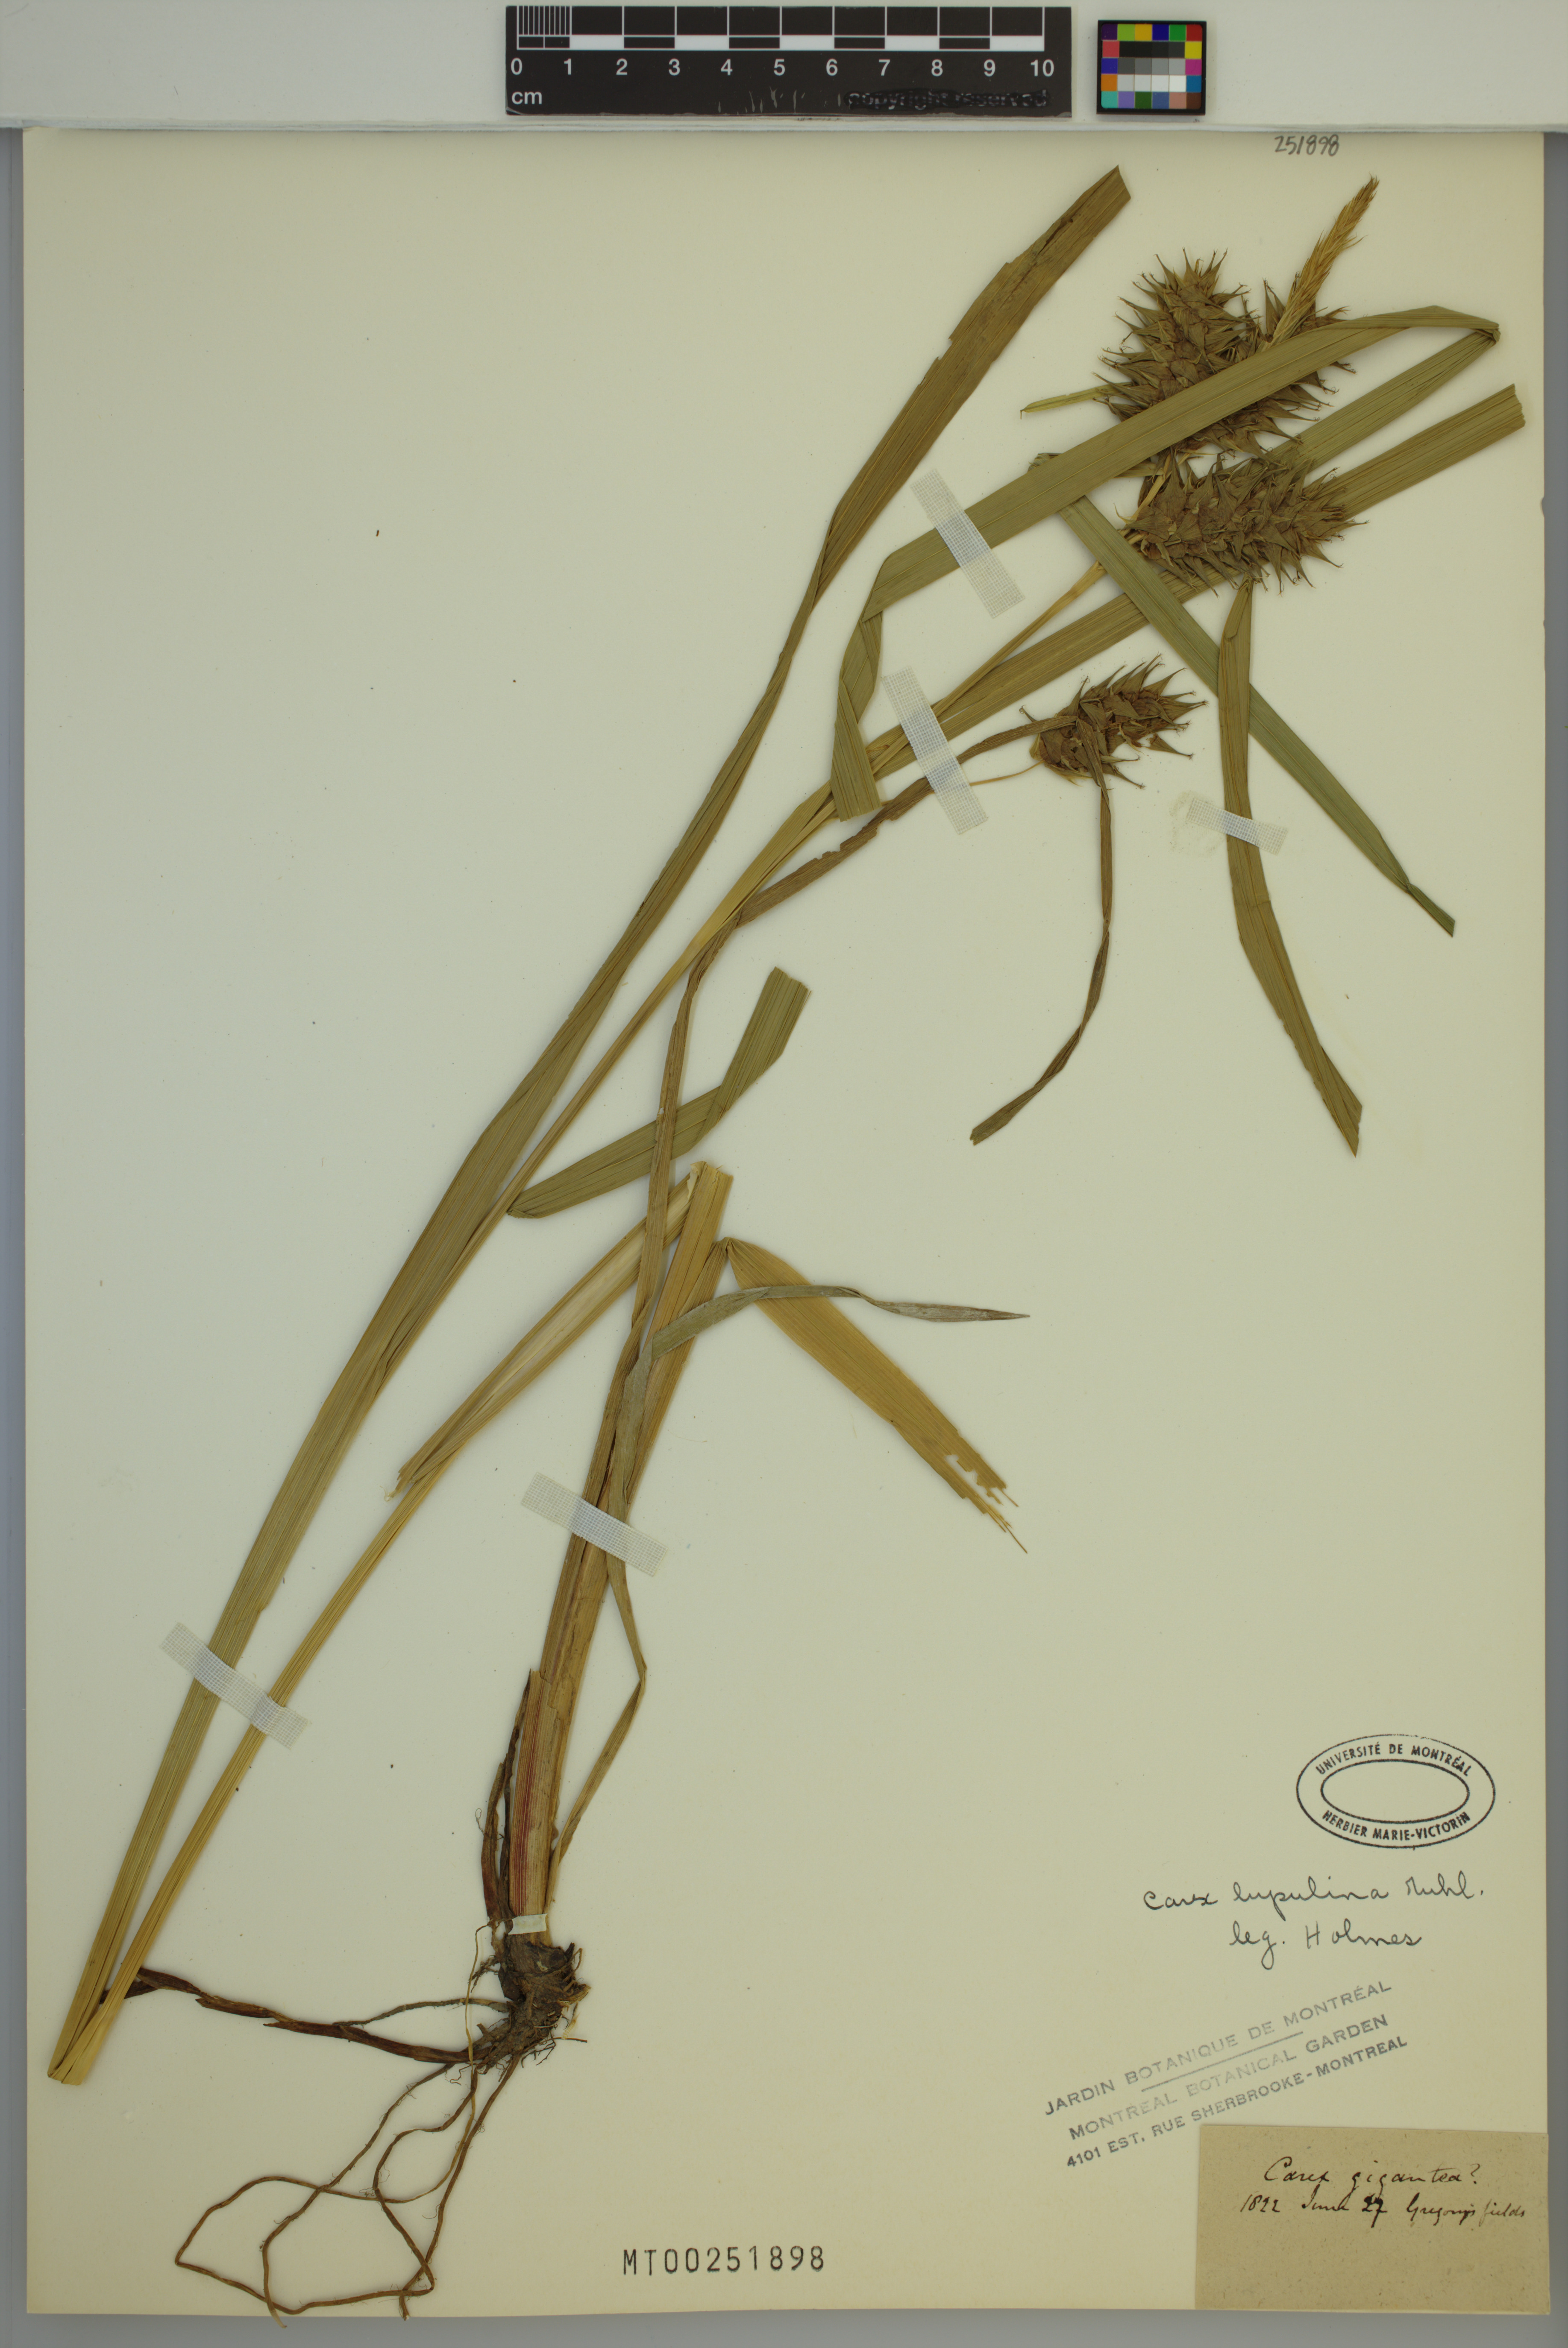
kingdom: Plantae
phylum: Tracheophyta
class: Liliopsida
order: Poales
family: Cyperaceae
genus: Carex
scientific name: Carex lupulina
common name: Hop sedge
